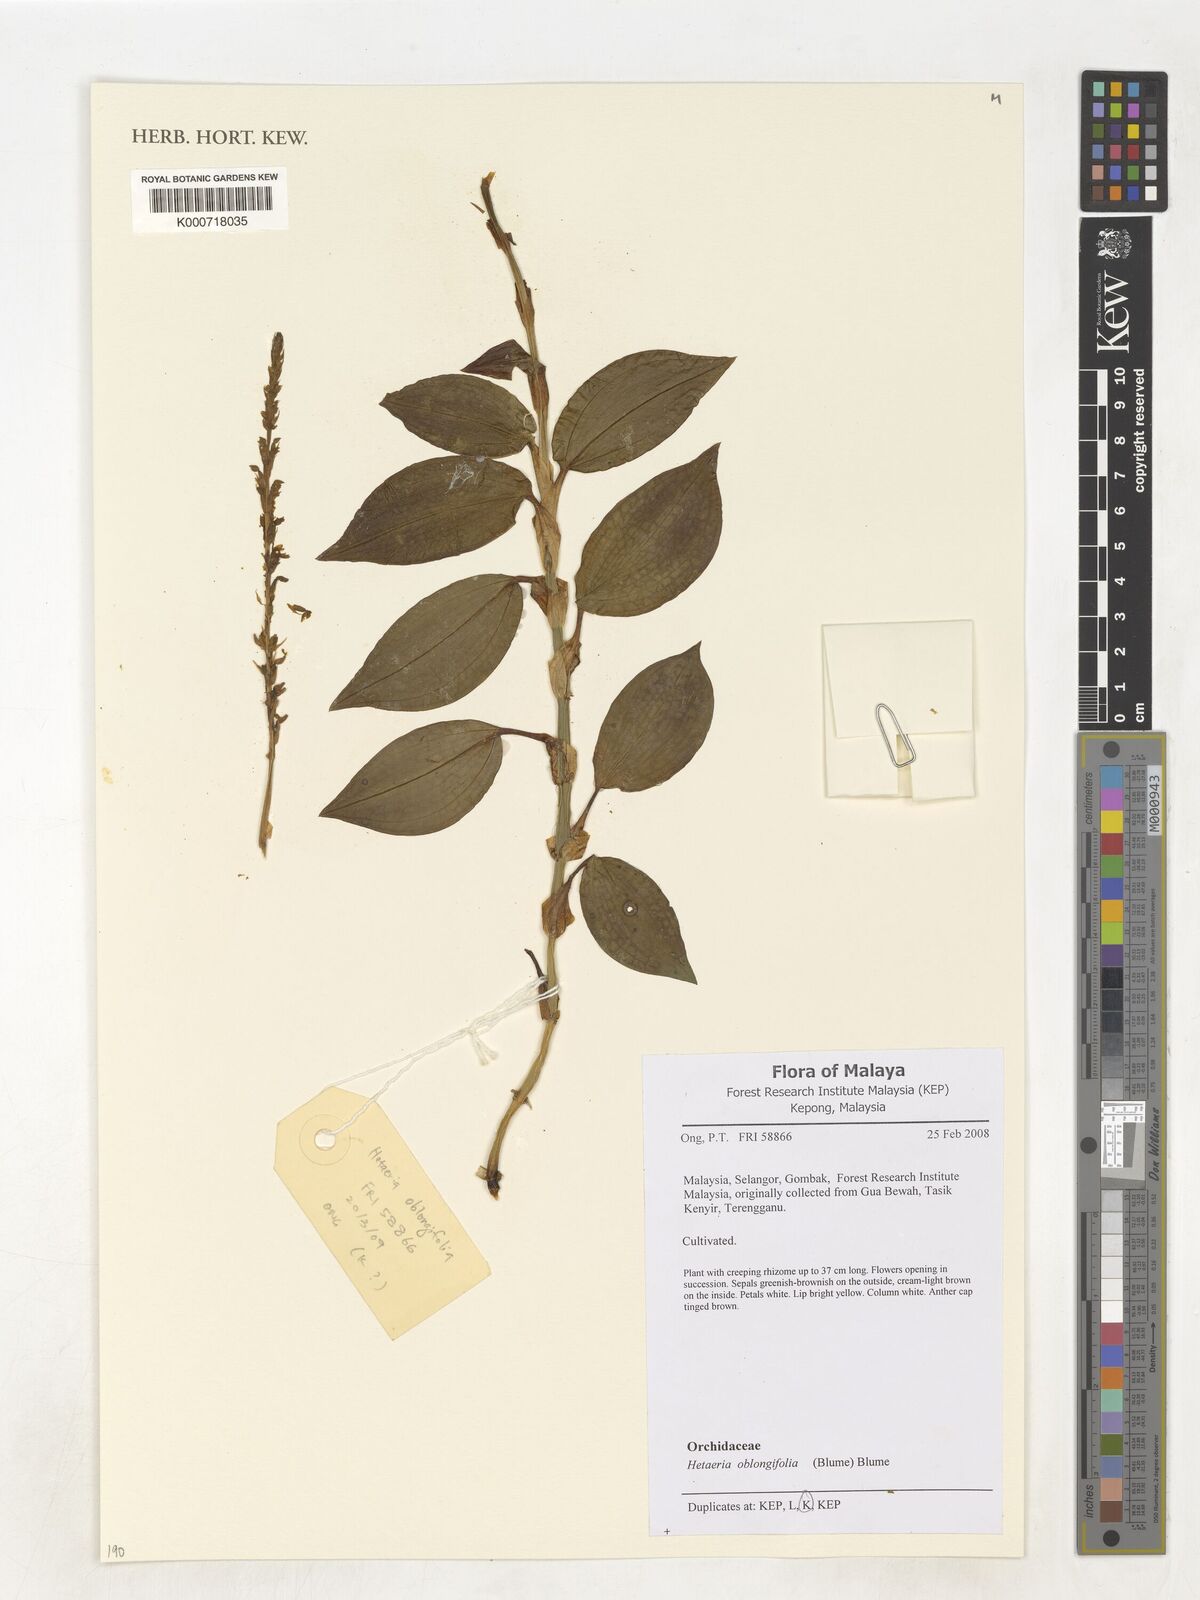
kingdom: Plantae
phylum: Tracheophyta
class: Liliopsida
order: Asparagales
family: Orchidaceae
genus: Hetaeria
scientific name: Hetaeria oblongifolia
